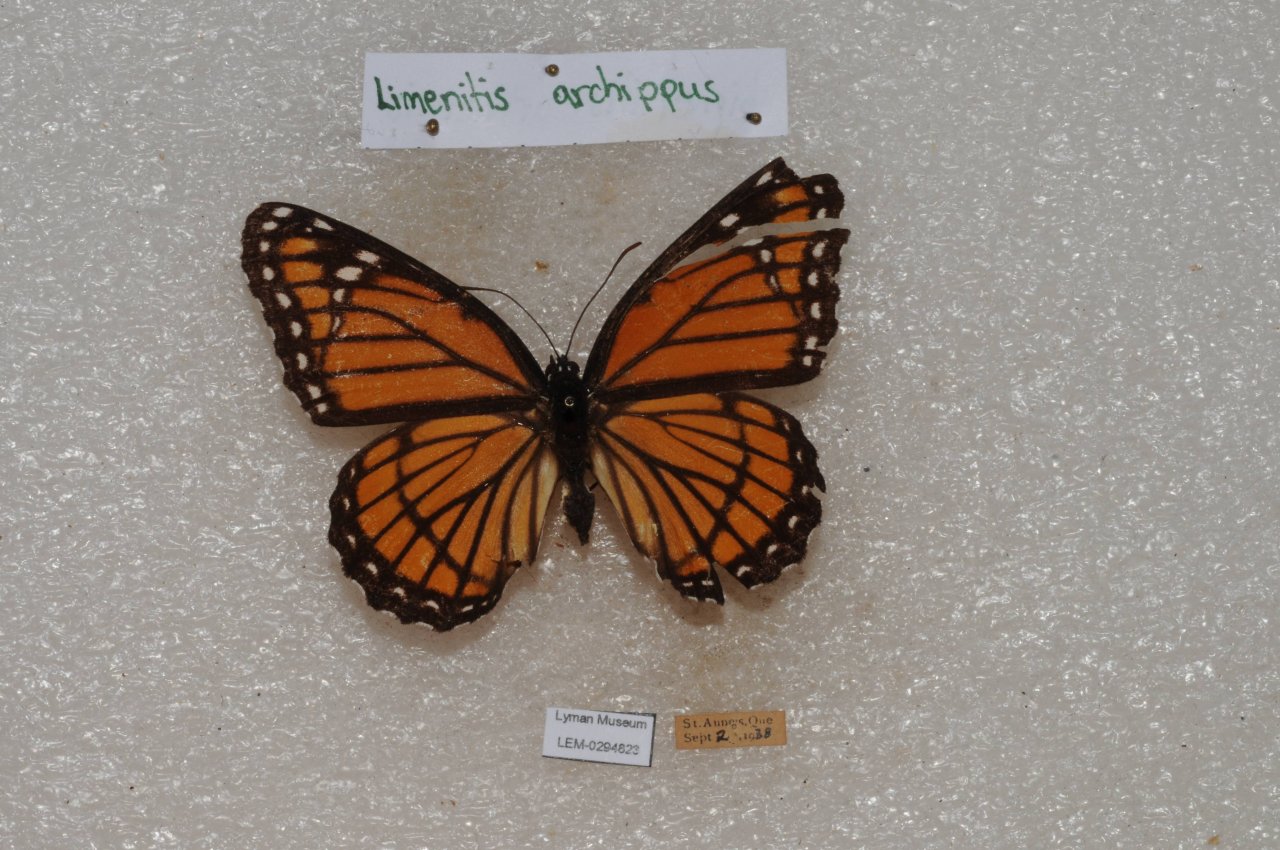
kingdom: Animalia
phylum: Arthropoda
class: Insecta
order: Lepidoptera
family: Nymphalidae
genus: Limenitis
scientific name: Limenitis archippus
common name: Viceroy
